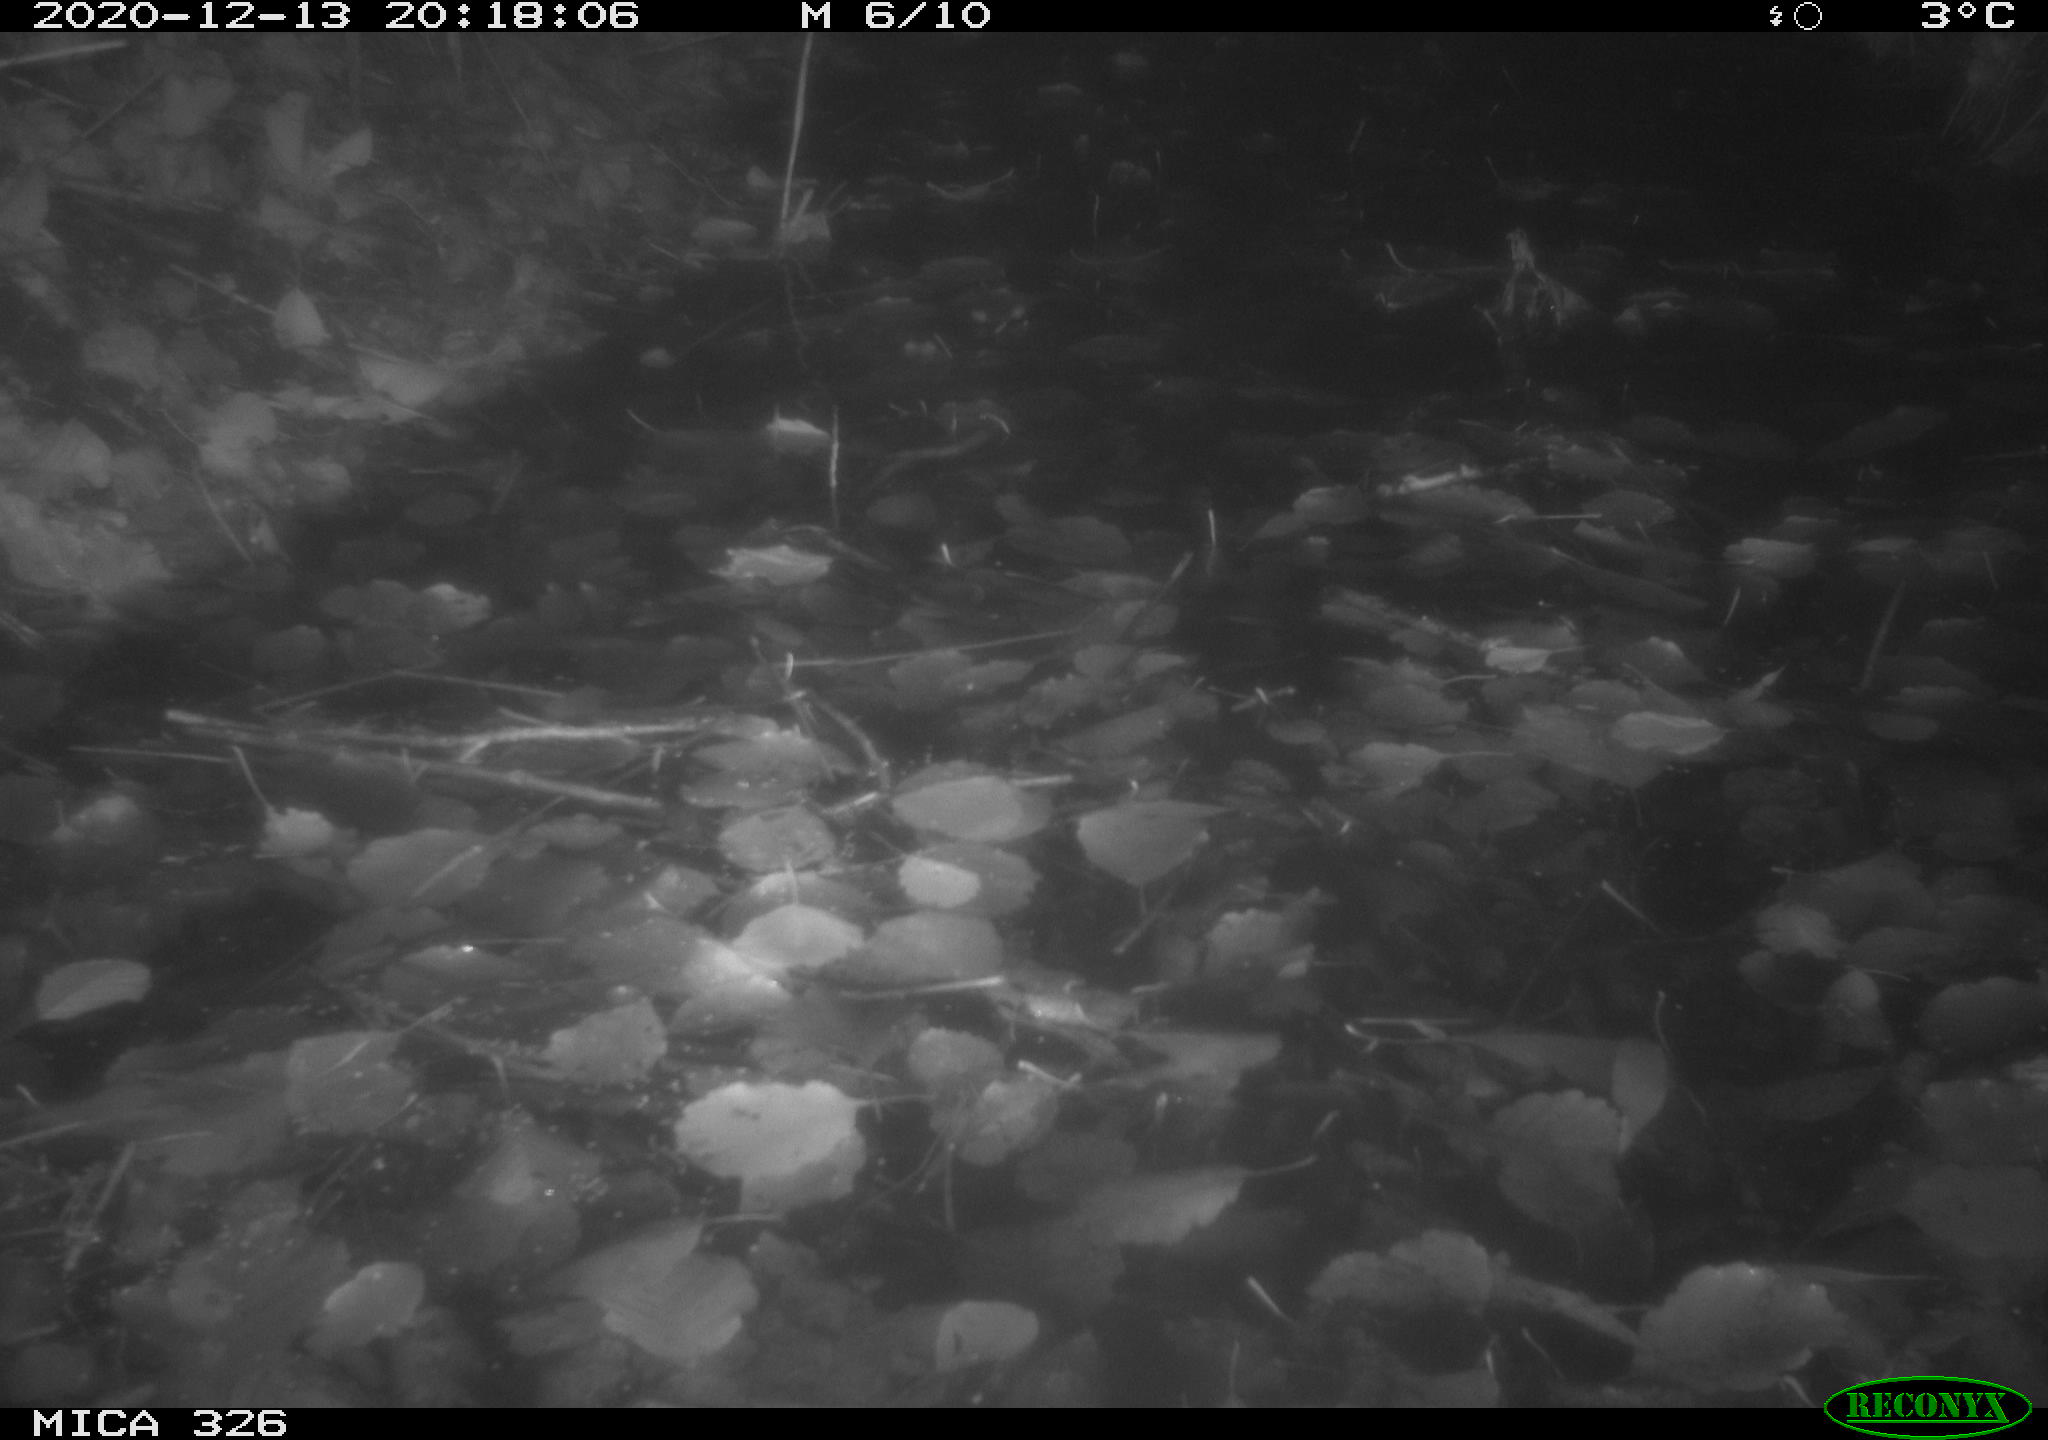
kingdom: Animalia
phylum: Chordata
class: Mammalia
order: Carnivora
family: Mustelidae
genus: Lutra
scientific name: Lutra lutra
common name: European otter
